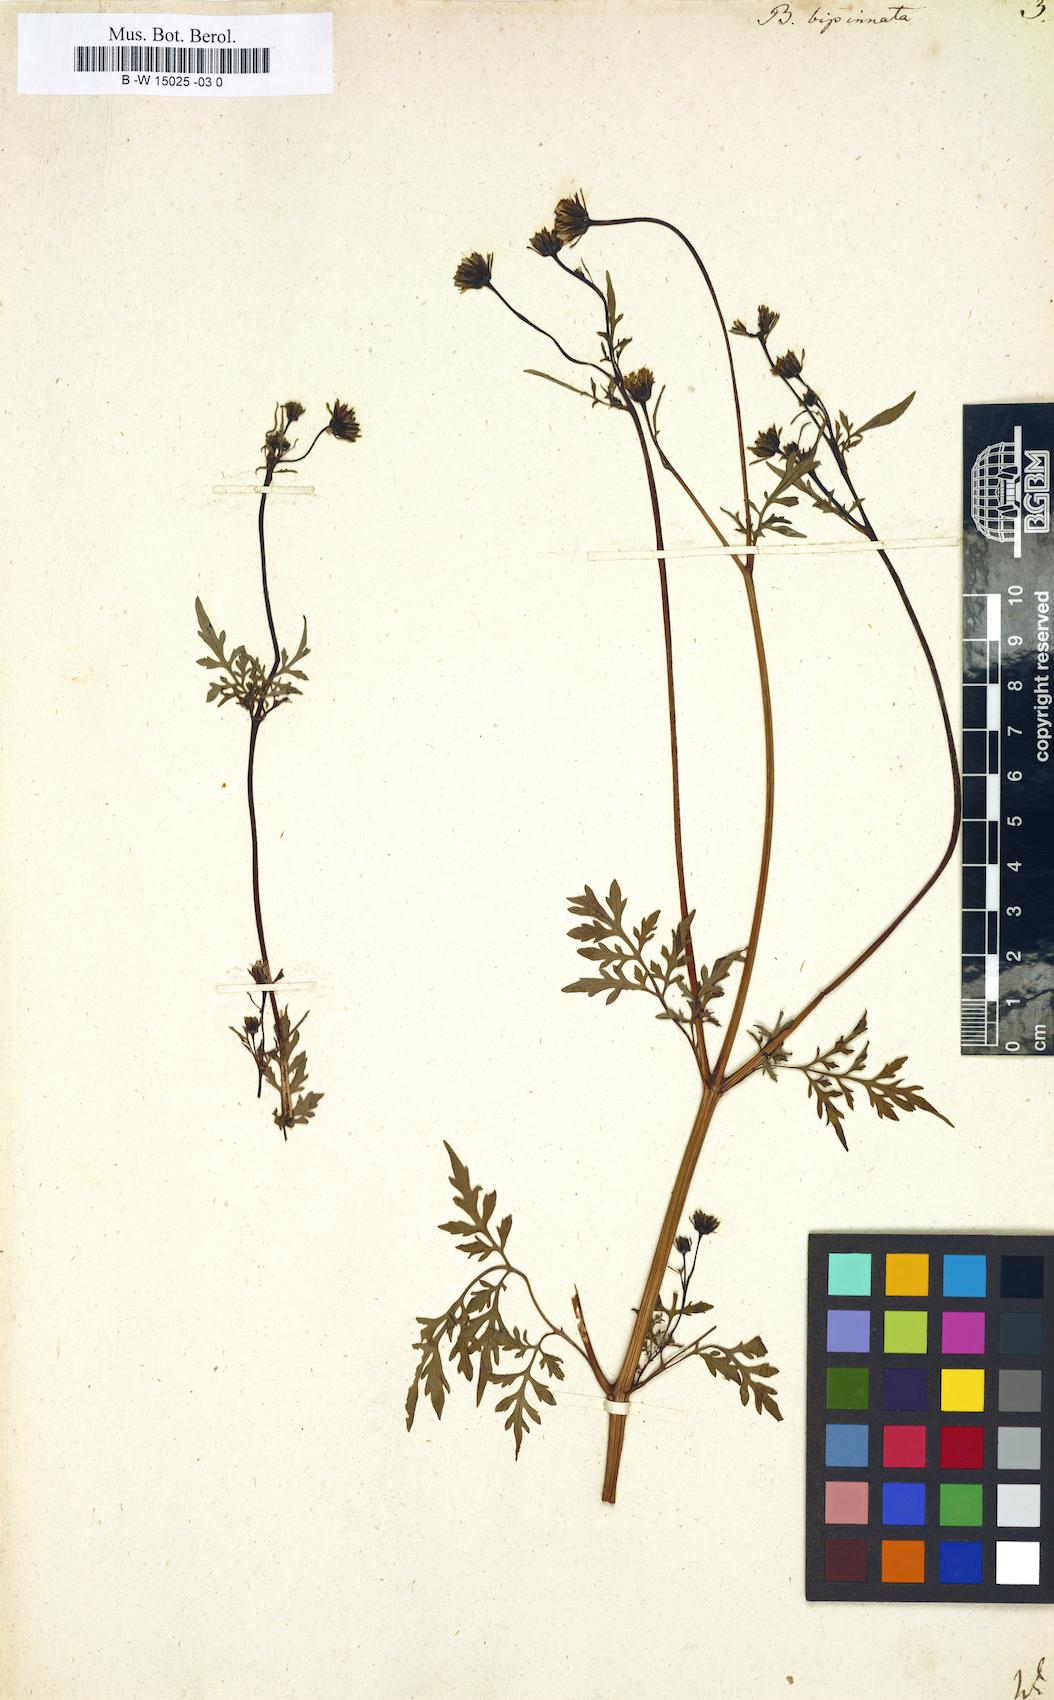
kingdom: Plantae
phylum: Tracheophyta
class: Magnoliopsida
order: Asterales
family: Asteraceae
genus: Bidens
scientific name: Bidens bipinnata
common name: Spanish-needles
